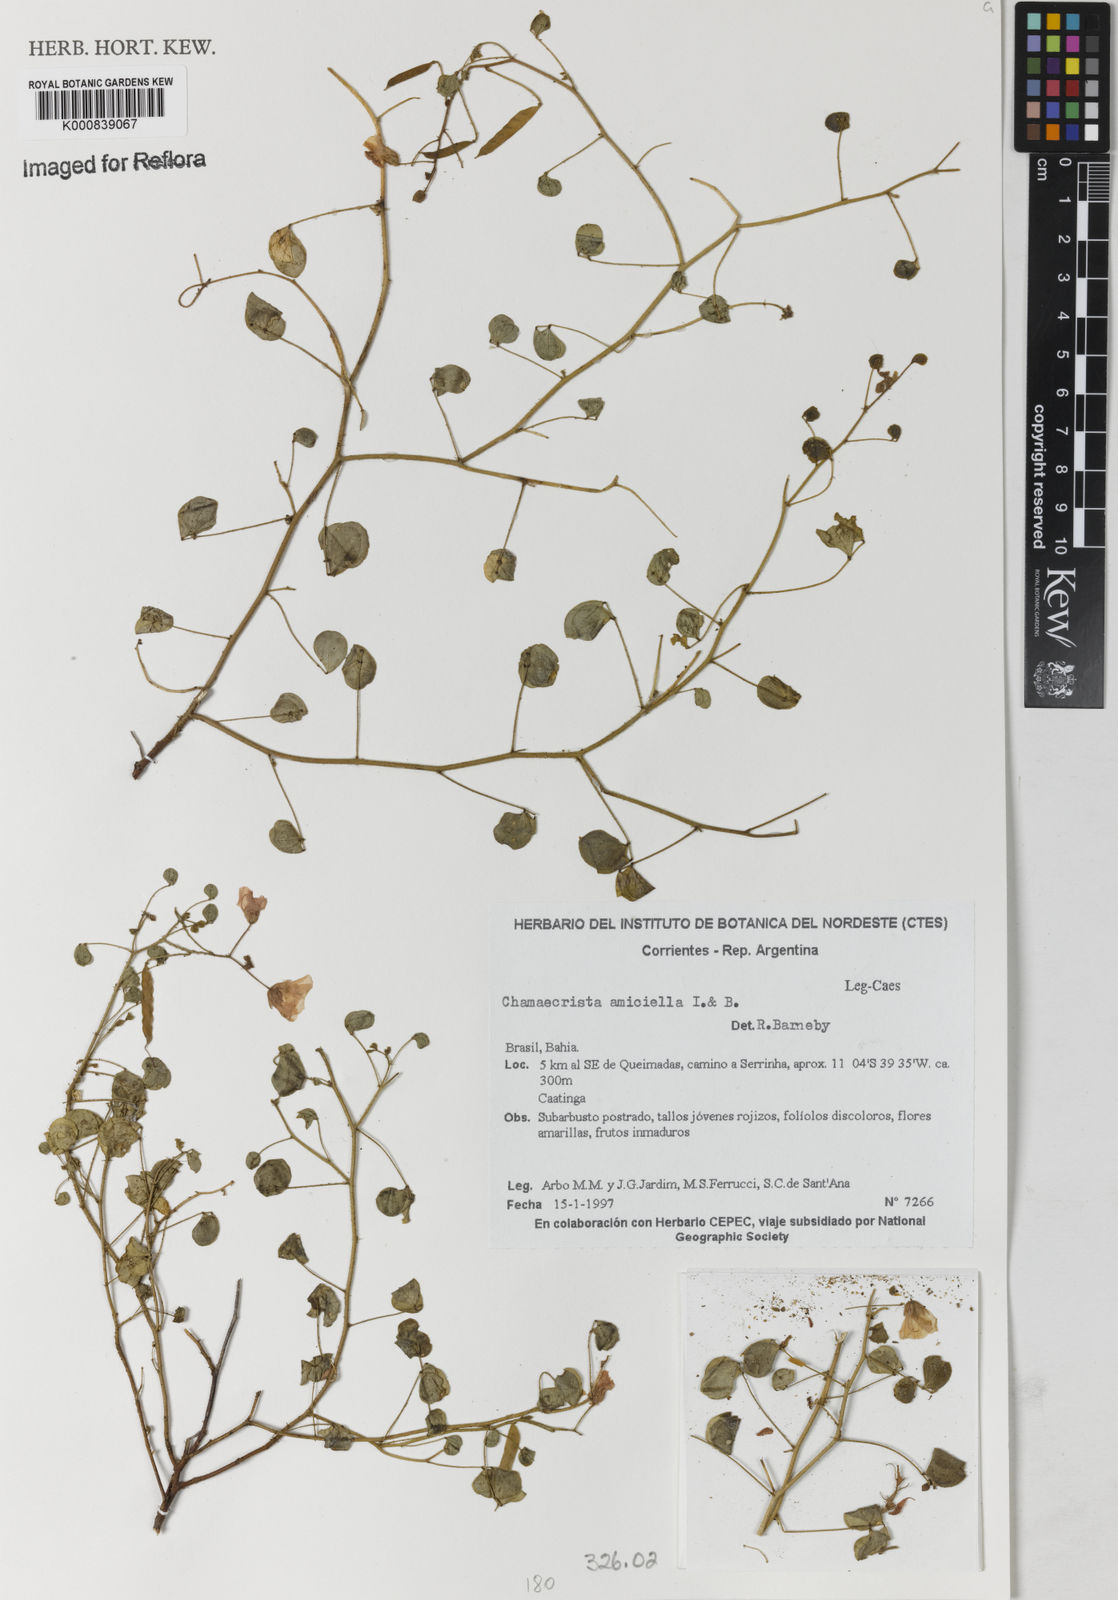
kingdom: Plantae
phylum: Tracheophyta
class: Magnoliopsida
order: Fabales
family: Fabaceae
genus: Chamaecrista
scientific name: Chamaecrista amiciella
